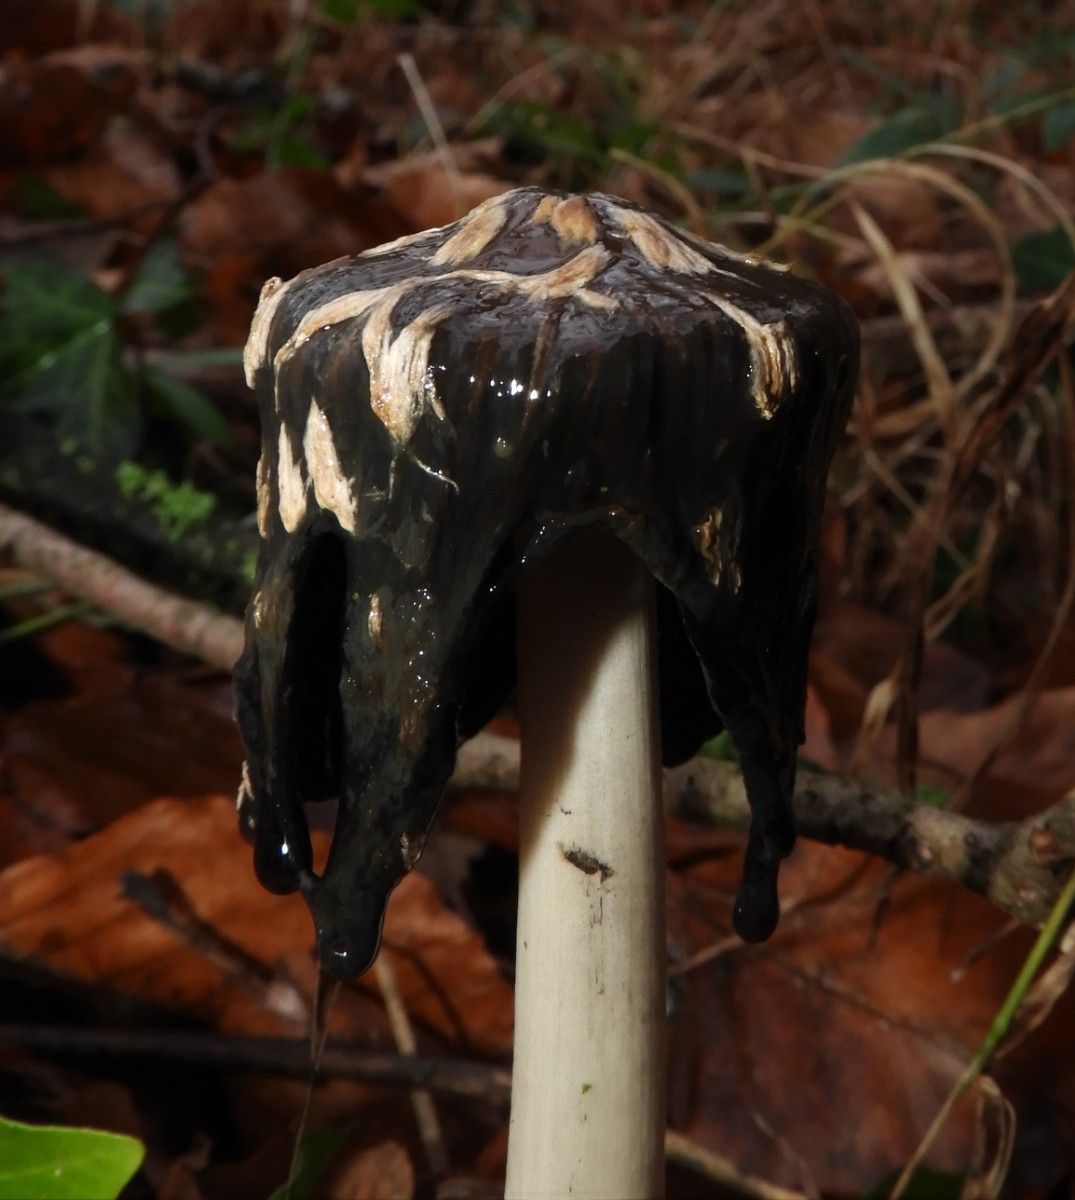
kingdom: Fungi
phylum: Basidiomycota
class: Agaricomycetes
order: Agaricales
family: Psathyrellaceae
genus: Coprinopsis
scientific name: Coprinopsis picacea
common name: skade-blækhat
